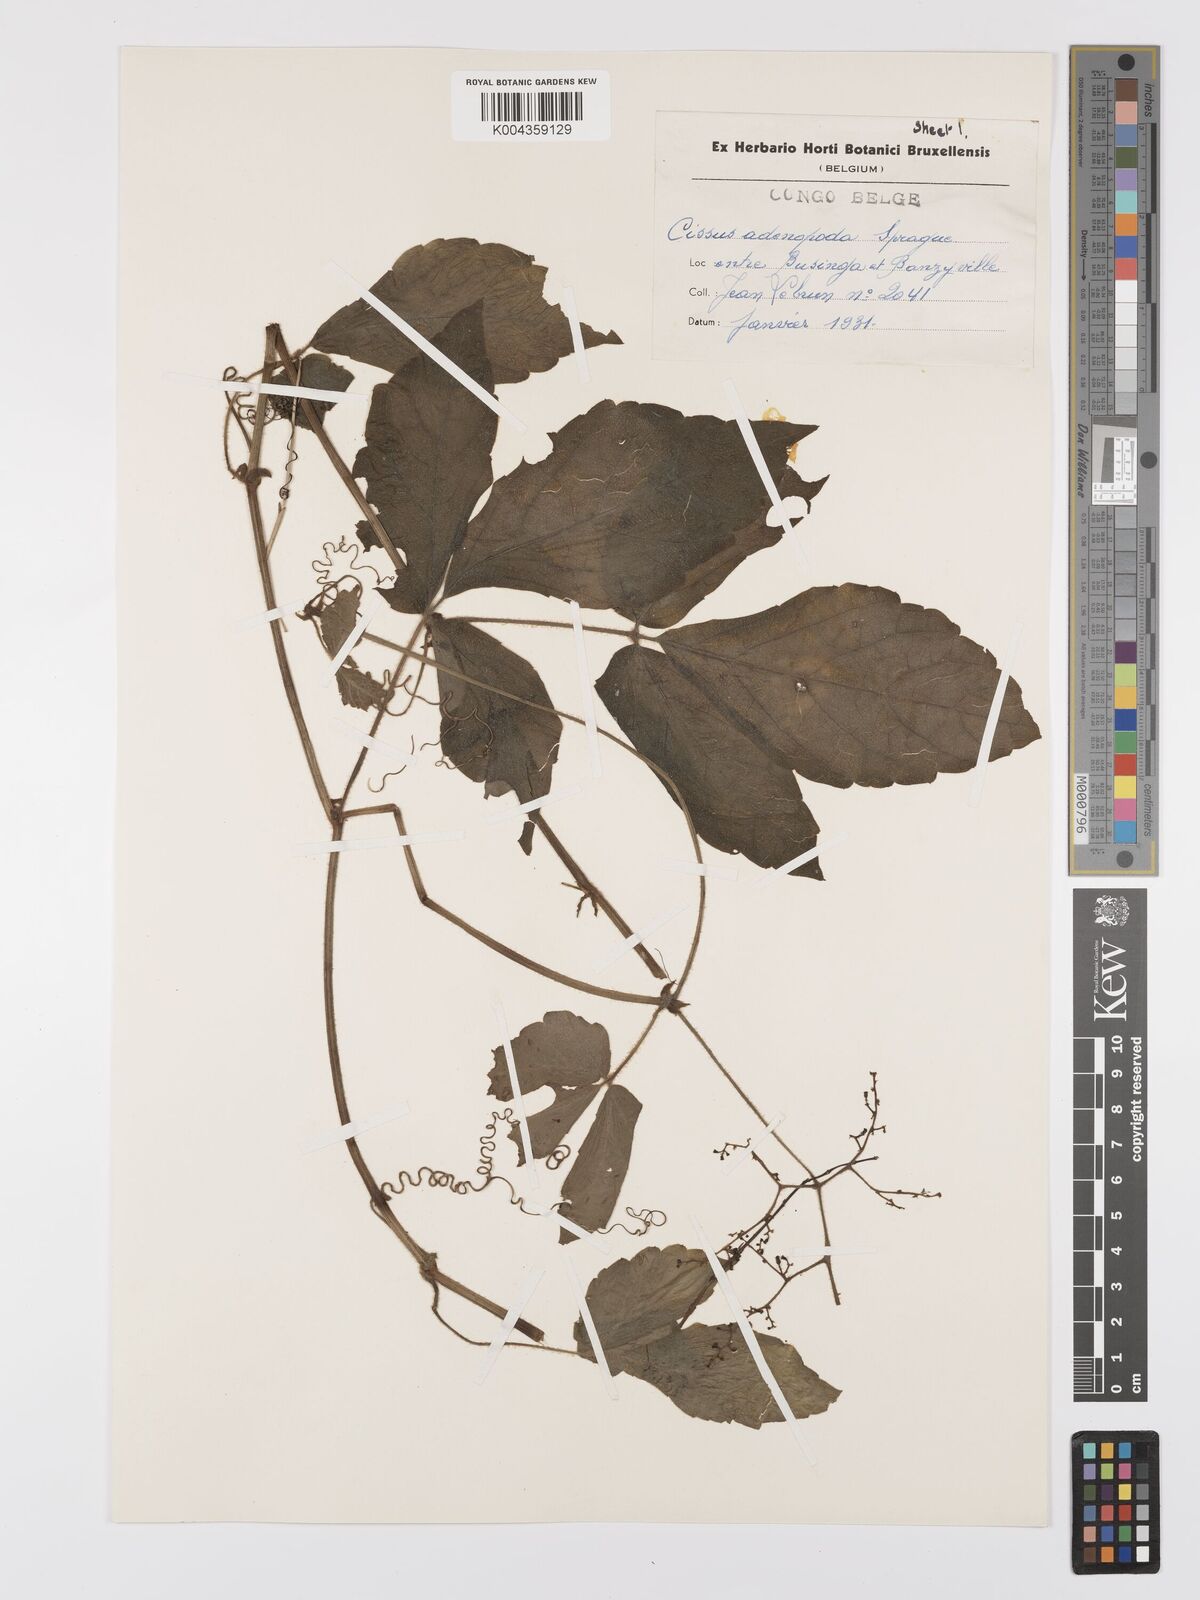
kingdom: Plantae
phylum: Tracheophyta
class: Magnoliopsida
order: Vitales
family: Vitaceae
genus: Cyphostemma
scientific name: Cyphostemma adenopodum
